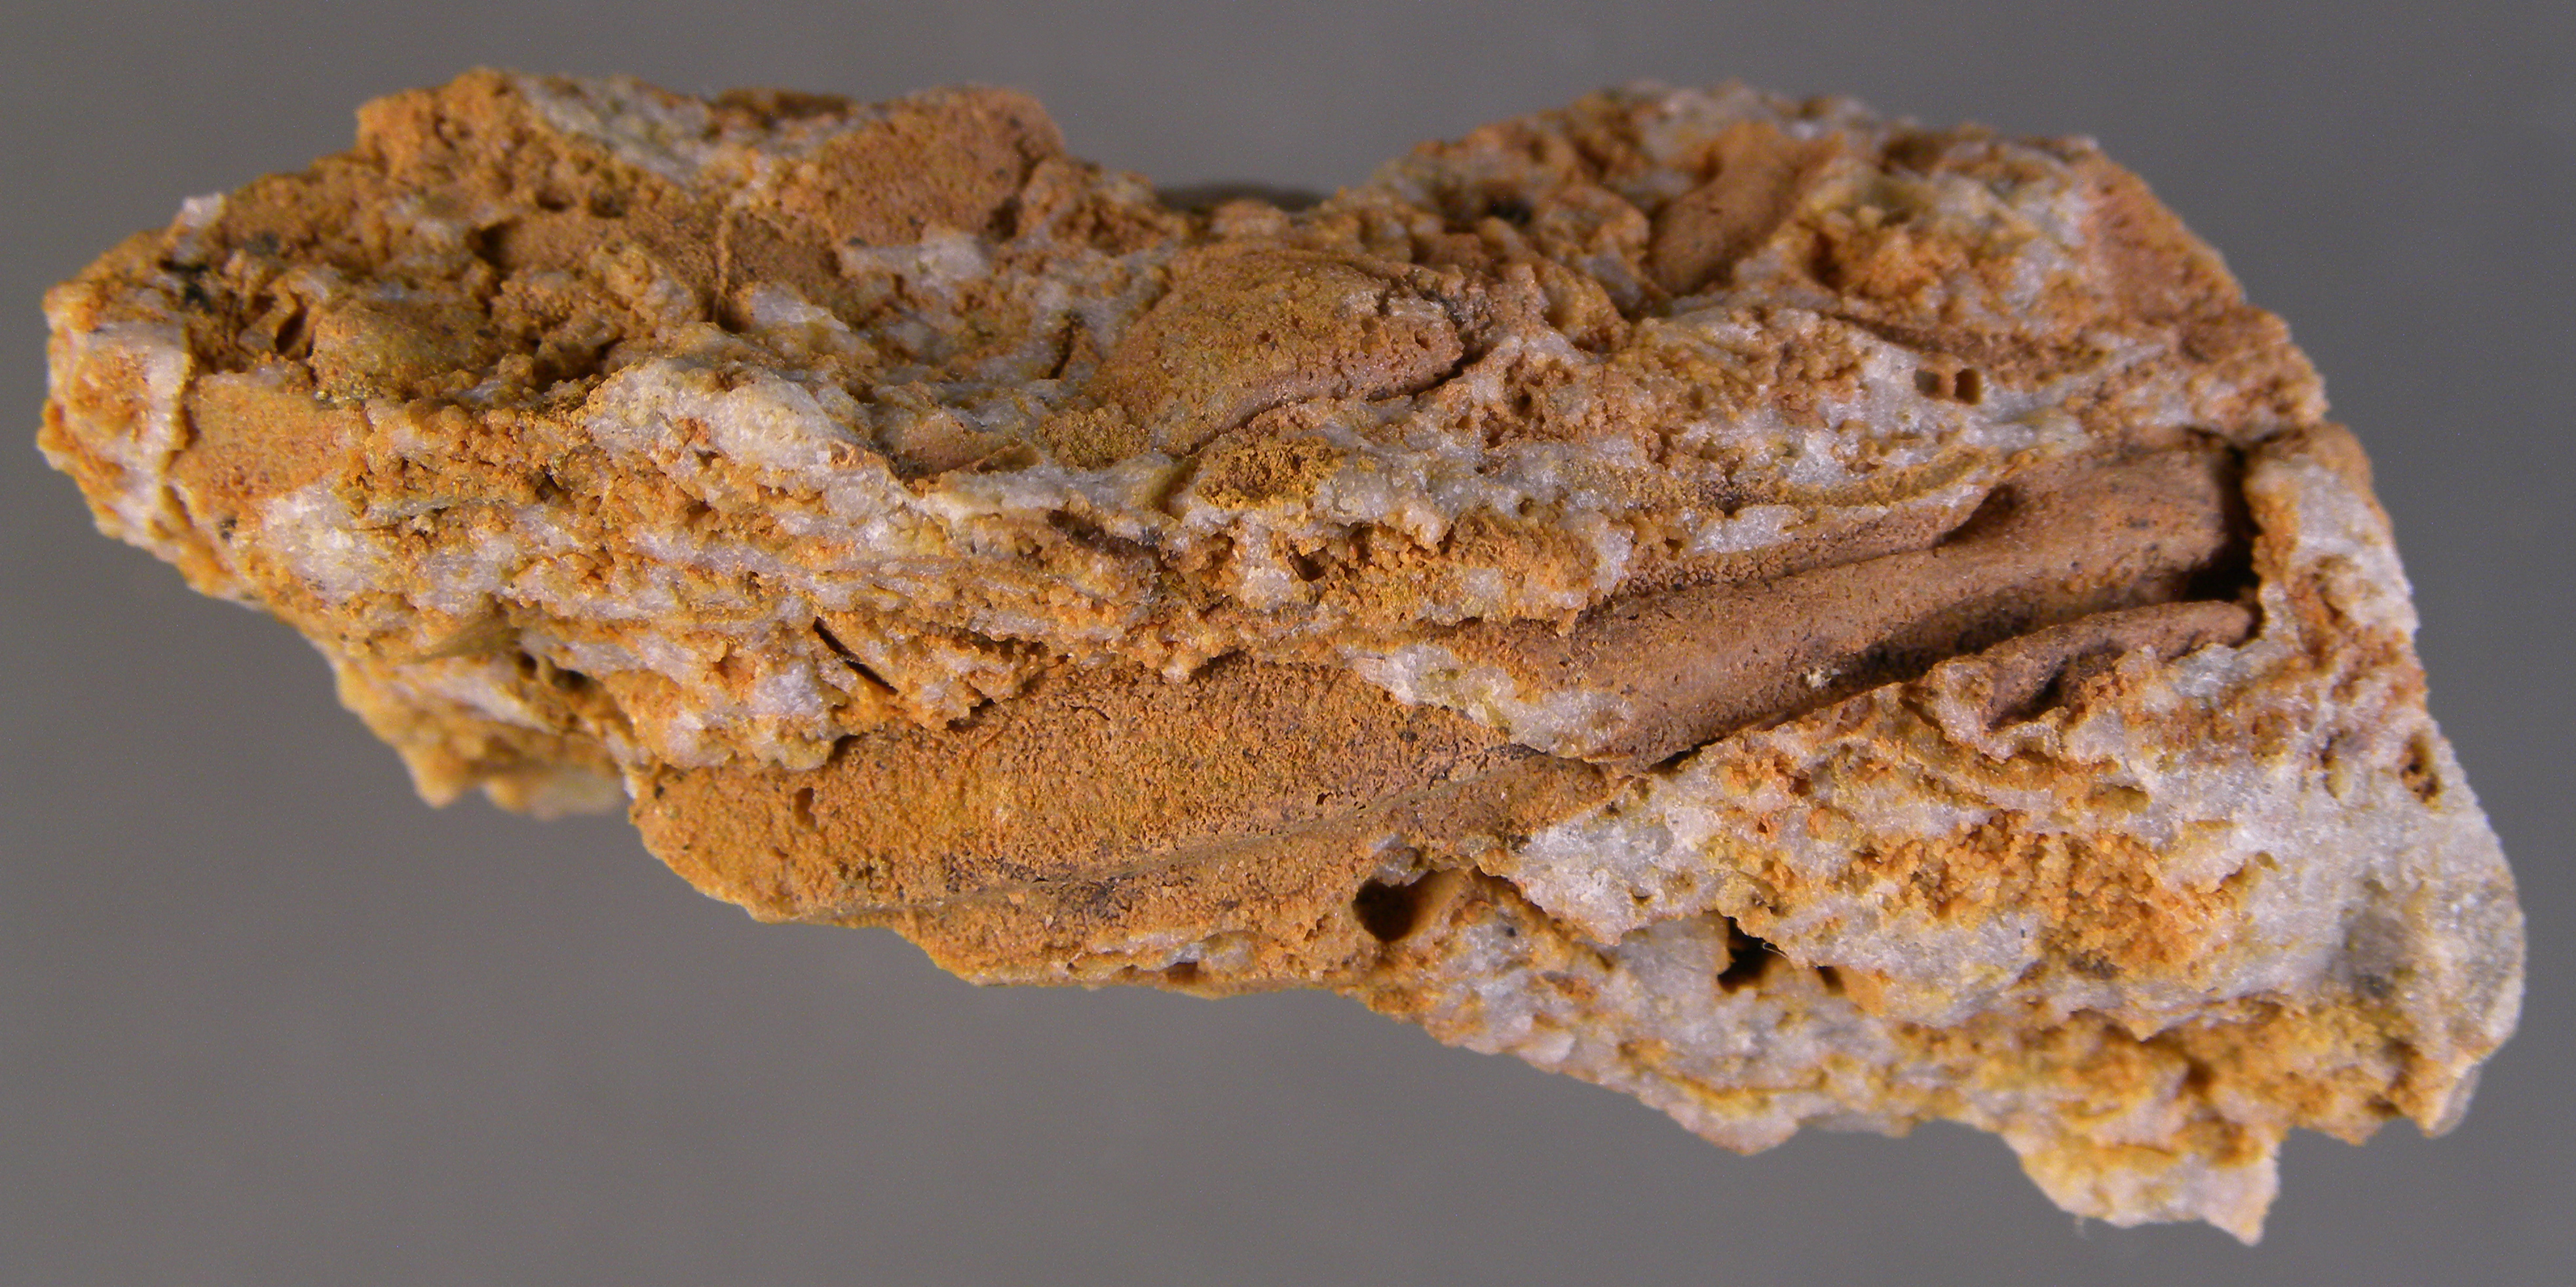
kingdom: Animalia
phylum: Brachiopoda
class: Rhynchonellata
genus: Tenuicostella
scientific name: Tenuicostella
